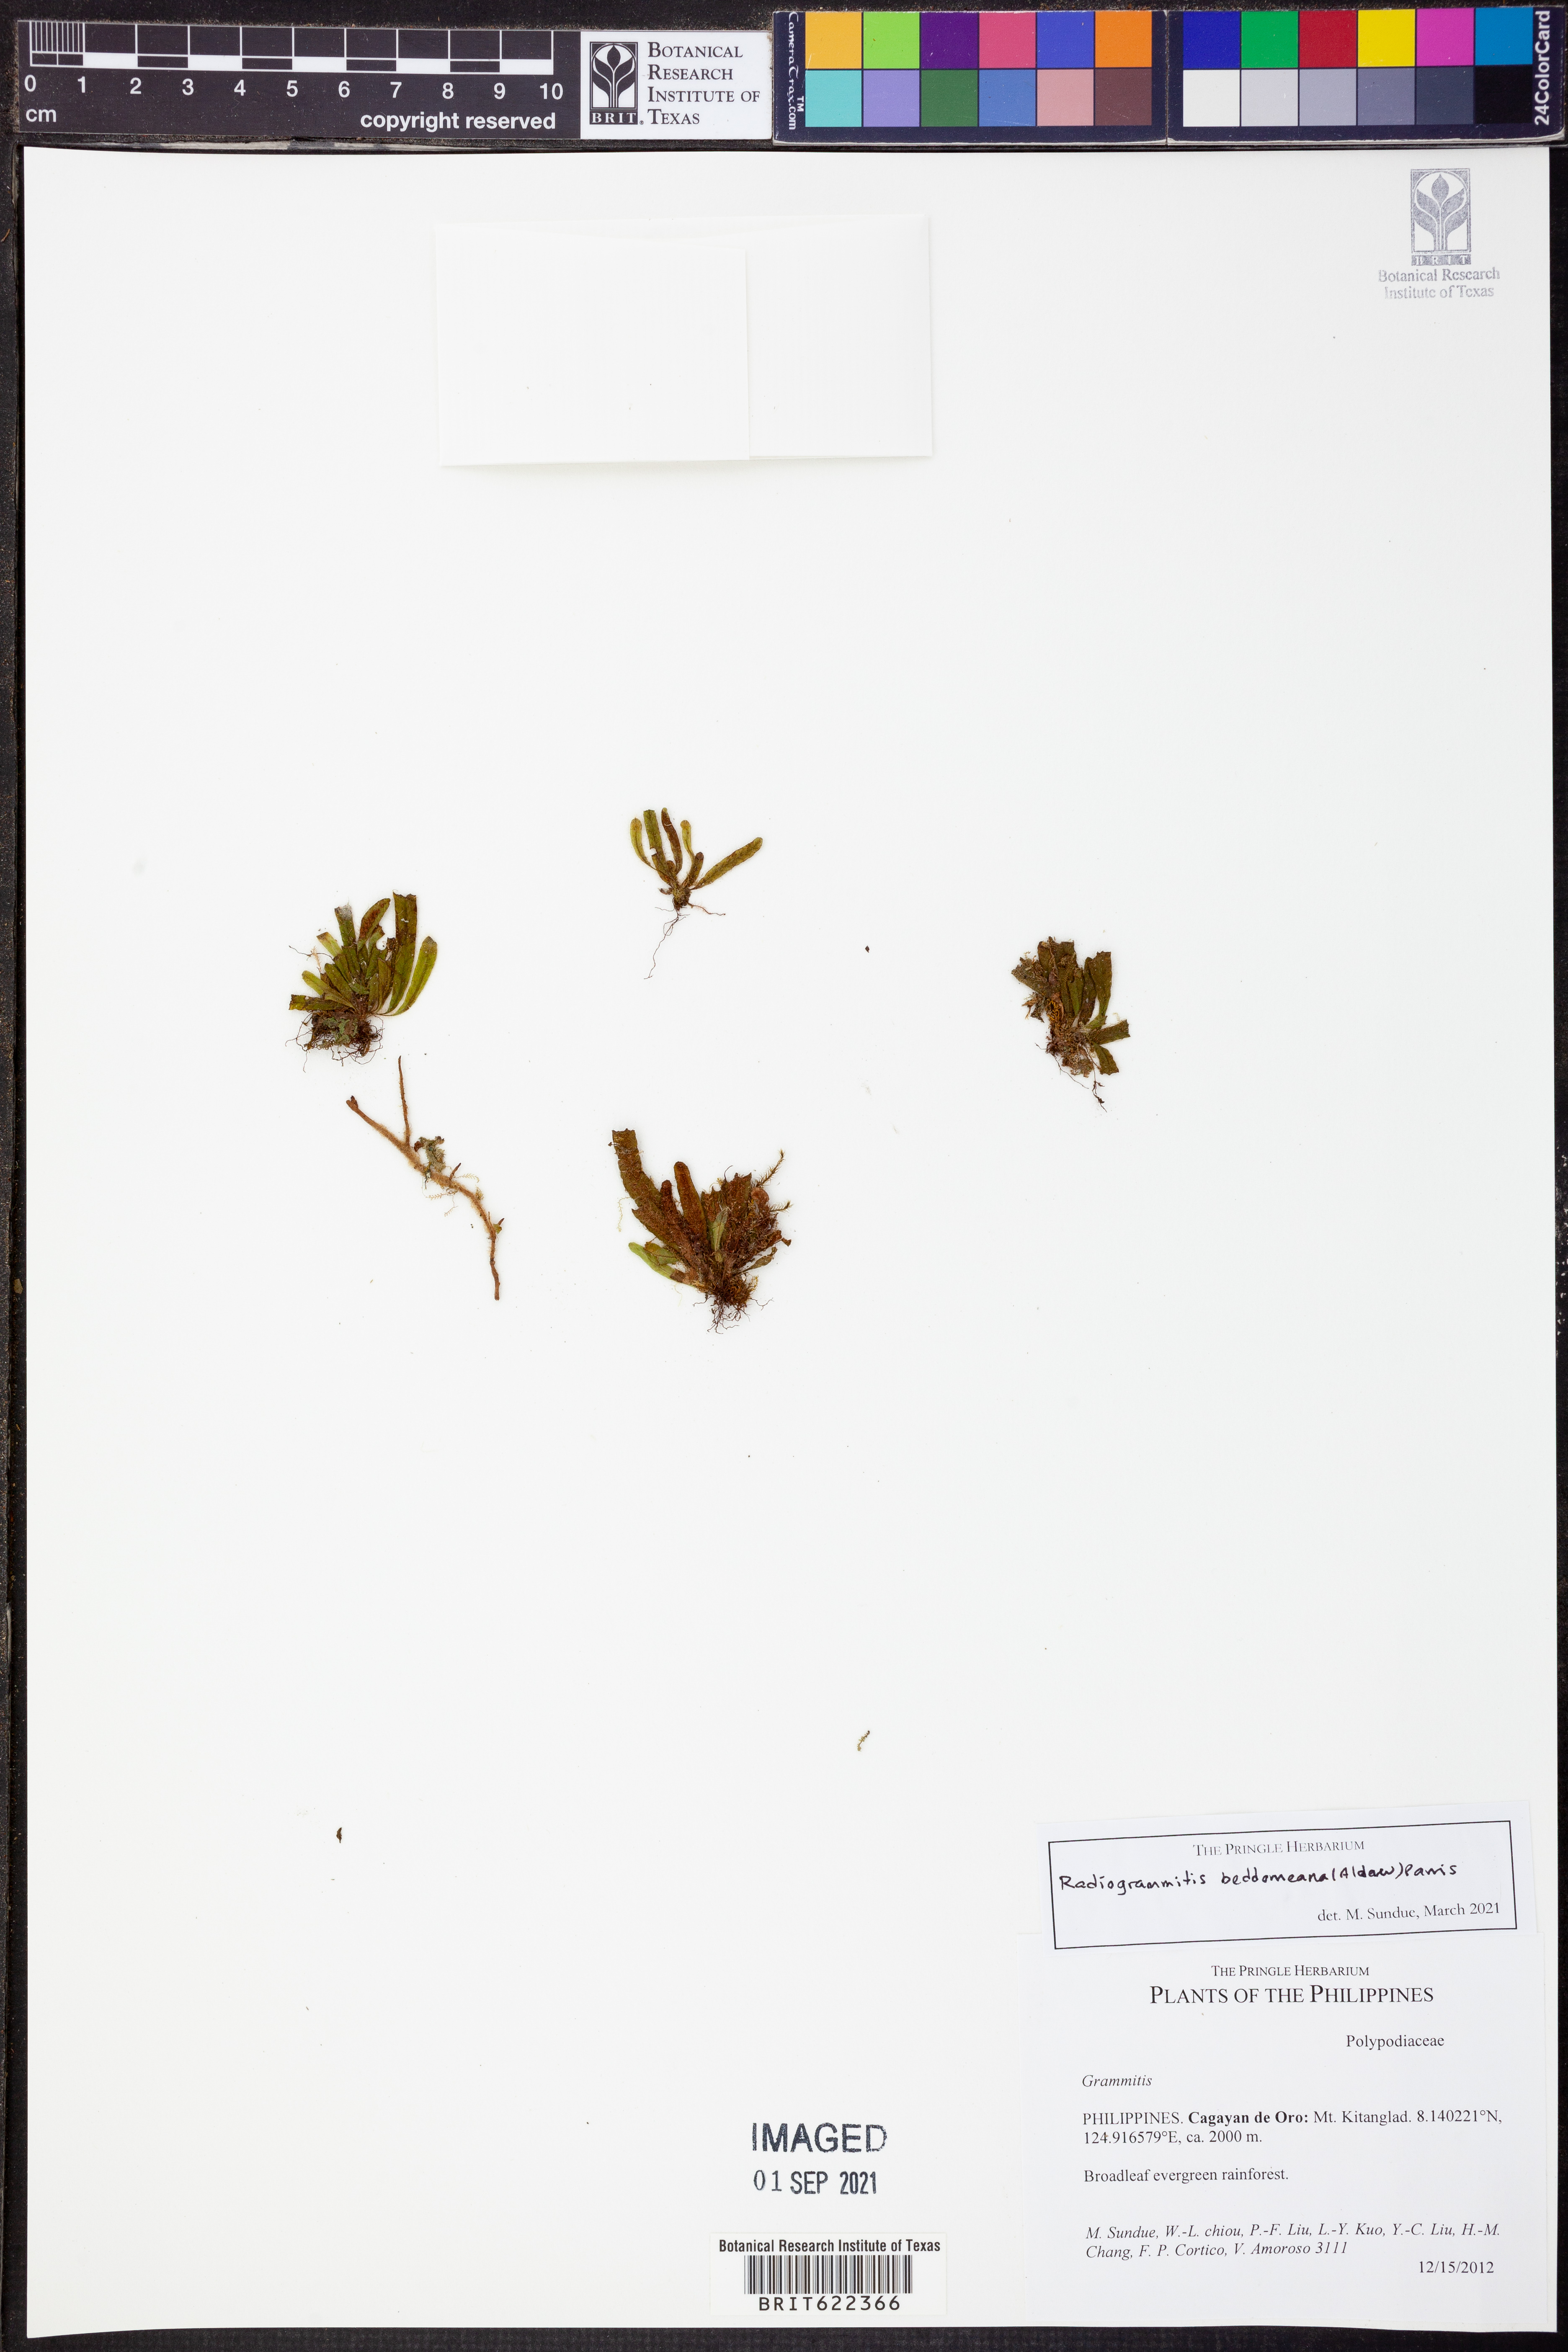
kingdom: Plantae
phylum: Tracheophyta
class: Polypodiopsida
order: Polypodiales
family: Polypodiaceae
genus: Oreogrammitis
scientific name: Oreogrammitis beddomeana
